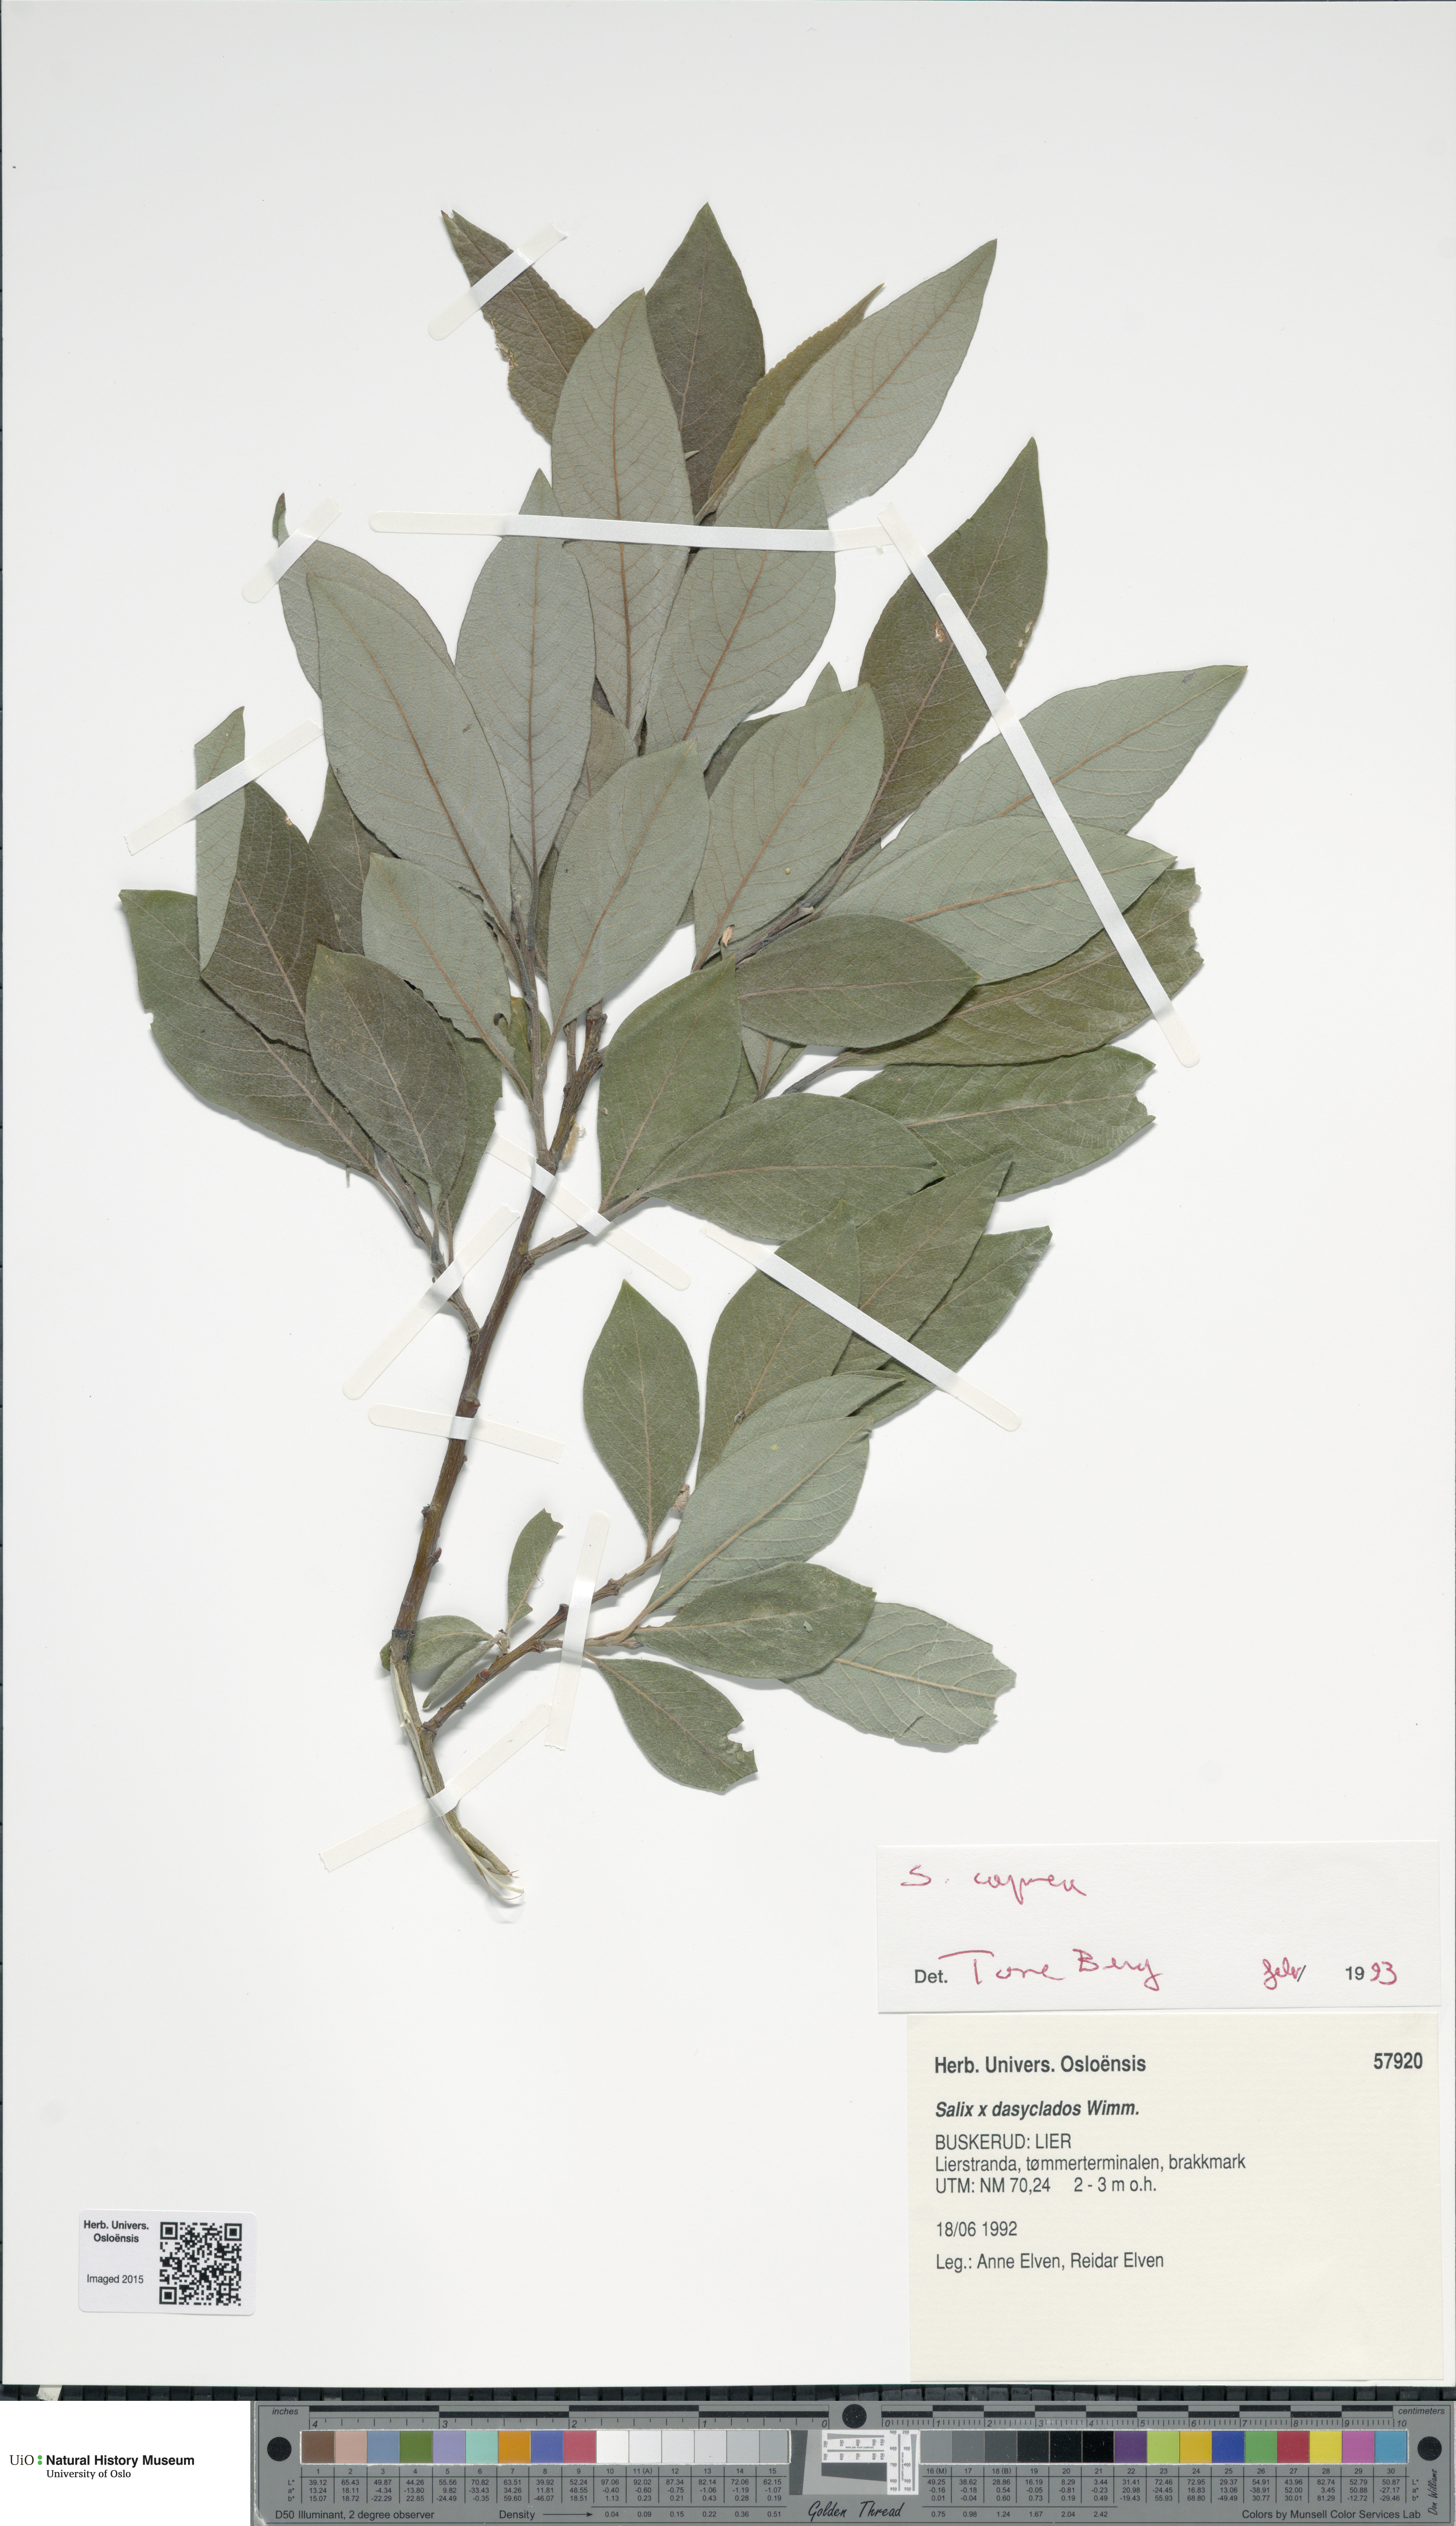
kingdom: Plantae
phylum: Tracheophyta
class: Magnoliopsida
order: Malpighiales
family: Salicaceae
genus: Salix
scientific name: Salix caprea
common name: Goat willow
